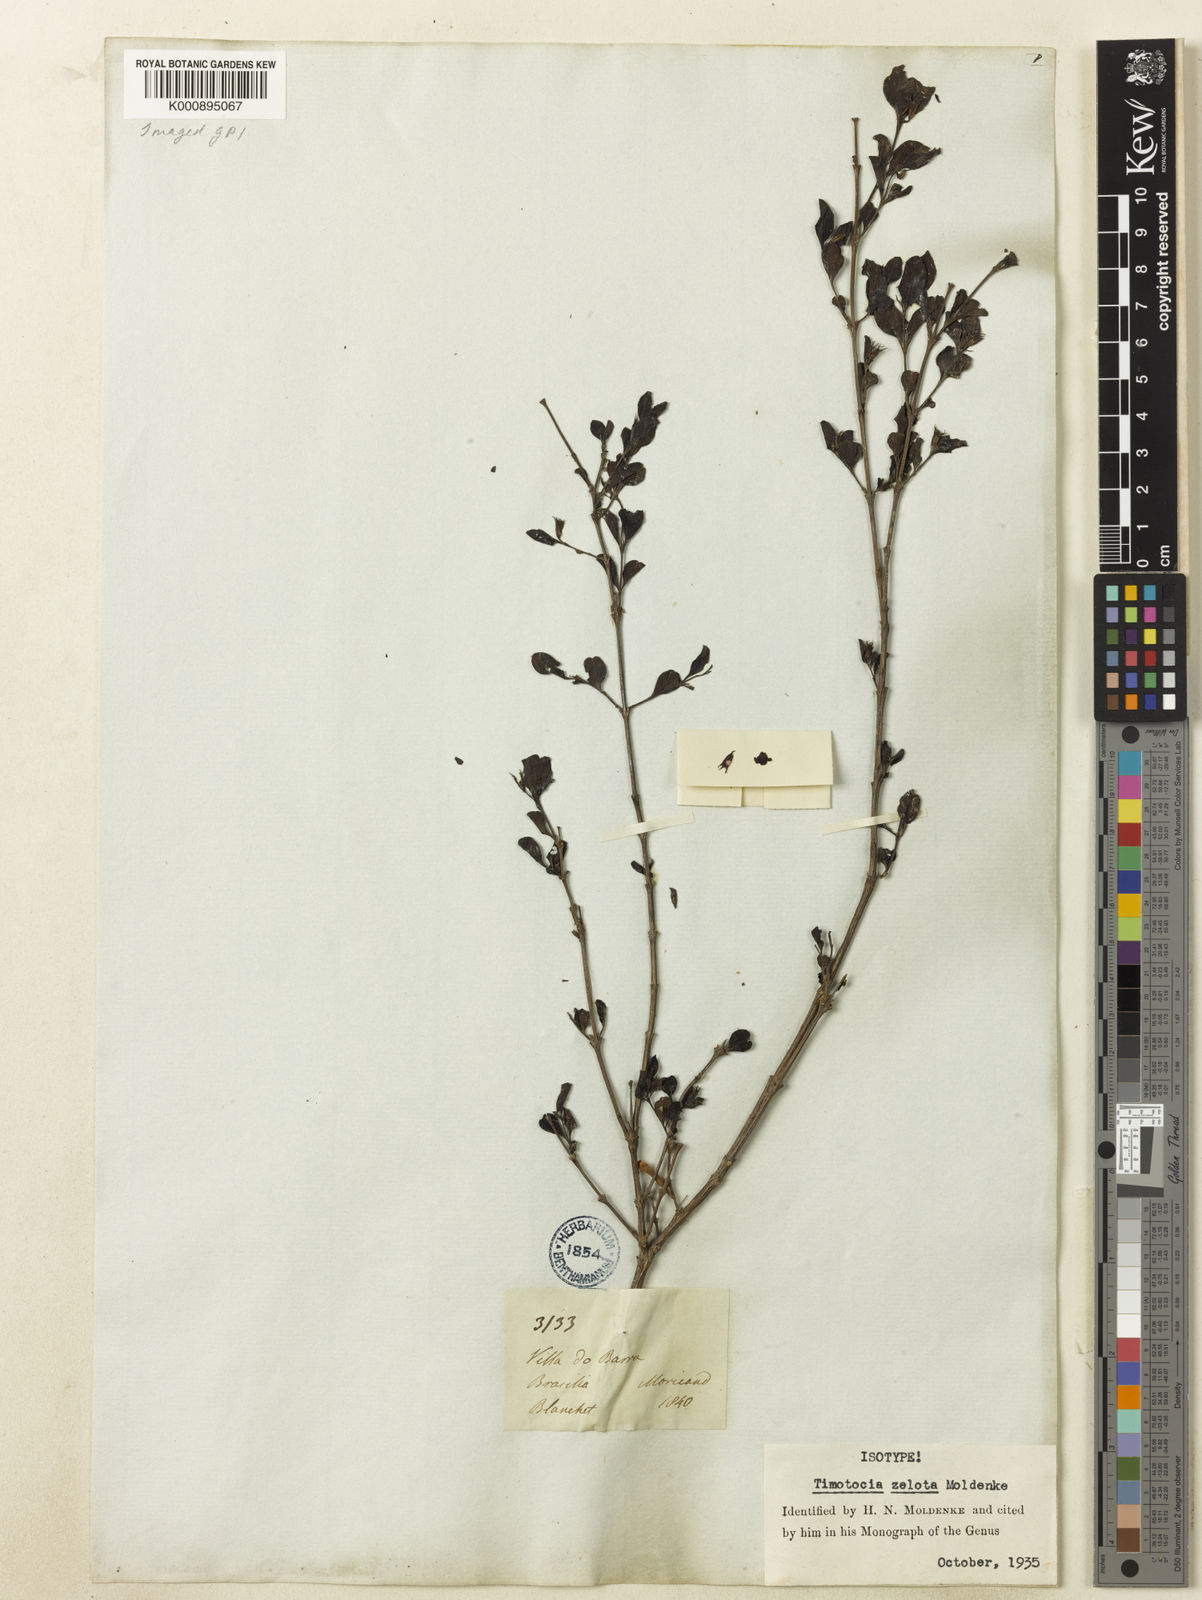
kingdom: Plantae
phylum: Tracheophyta
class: Magnoliopsida
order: Lamiales
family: Verbenaceae
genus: Casselia
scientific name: Casselia zelota
